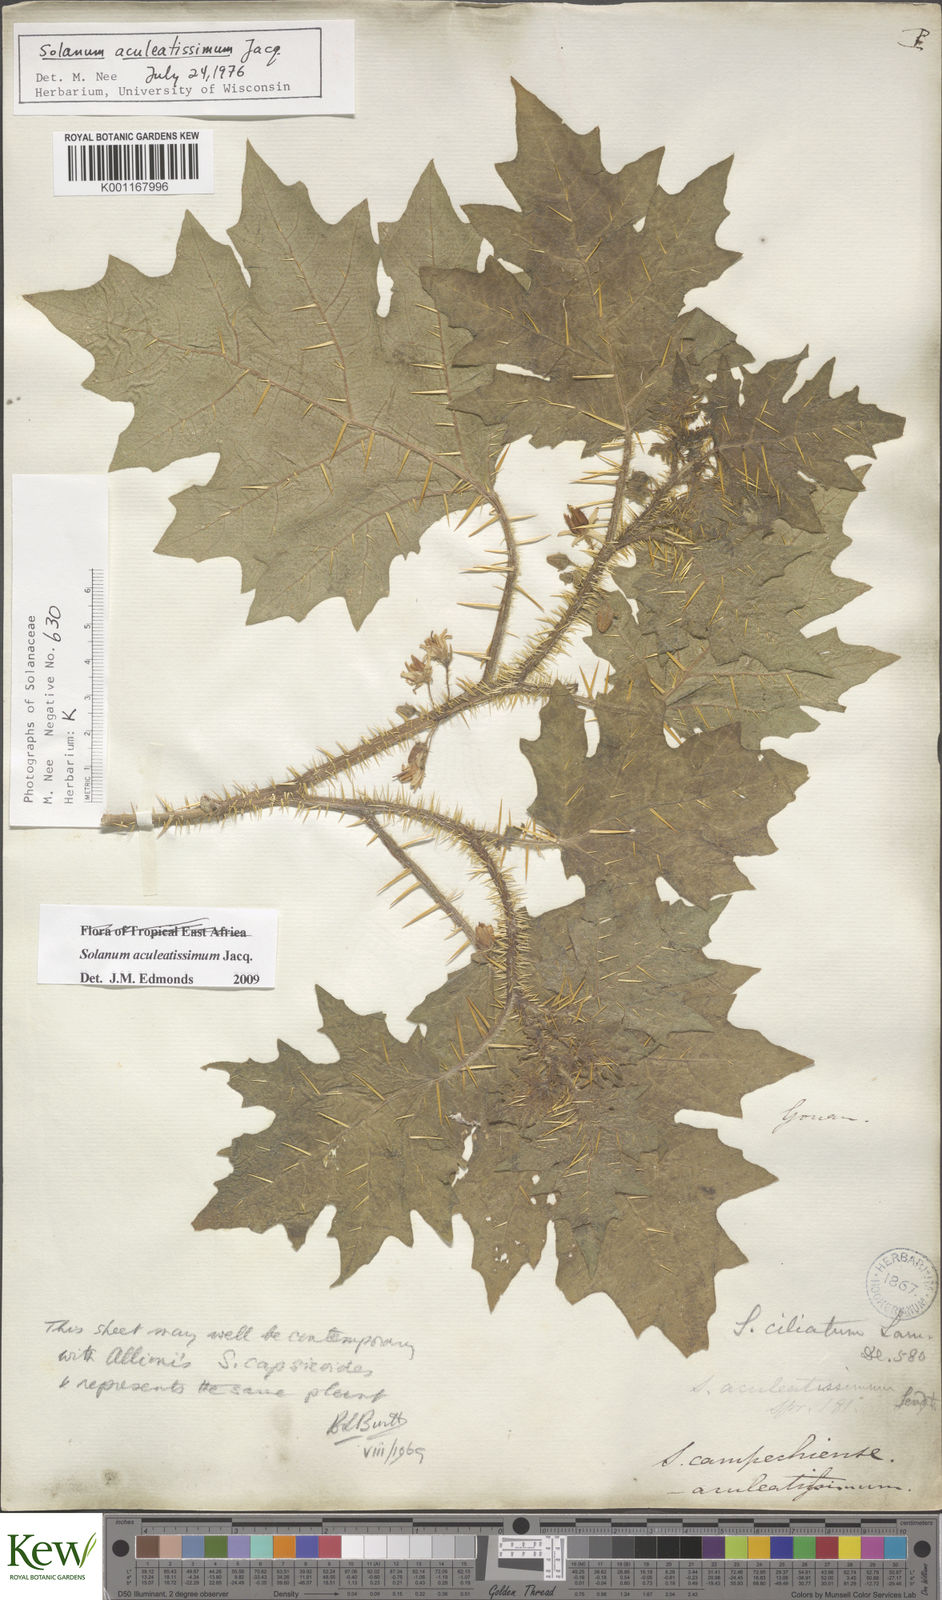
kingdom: Plantae
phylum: Tracheophyta
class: Magnoliopsida
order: Solanales
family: Solanaceae
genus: Solanum
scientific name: Solanum aculeatissimum
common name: Dutch eggplant
